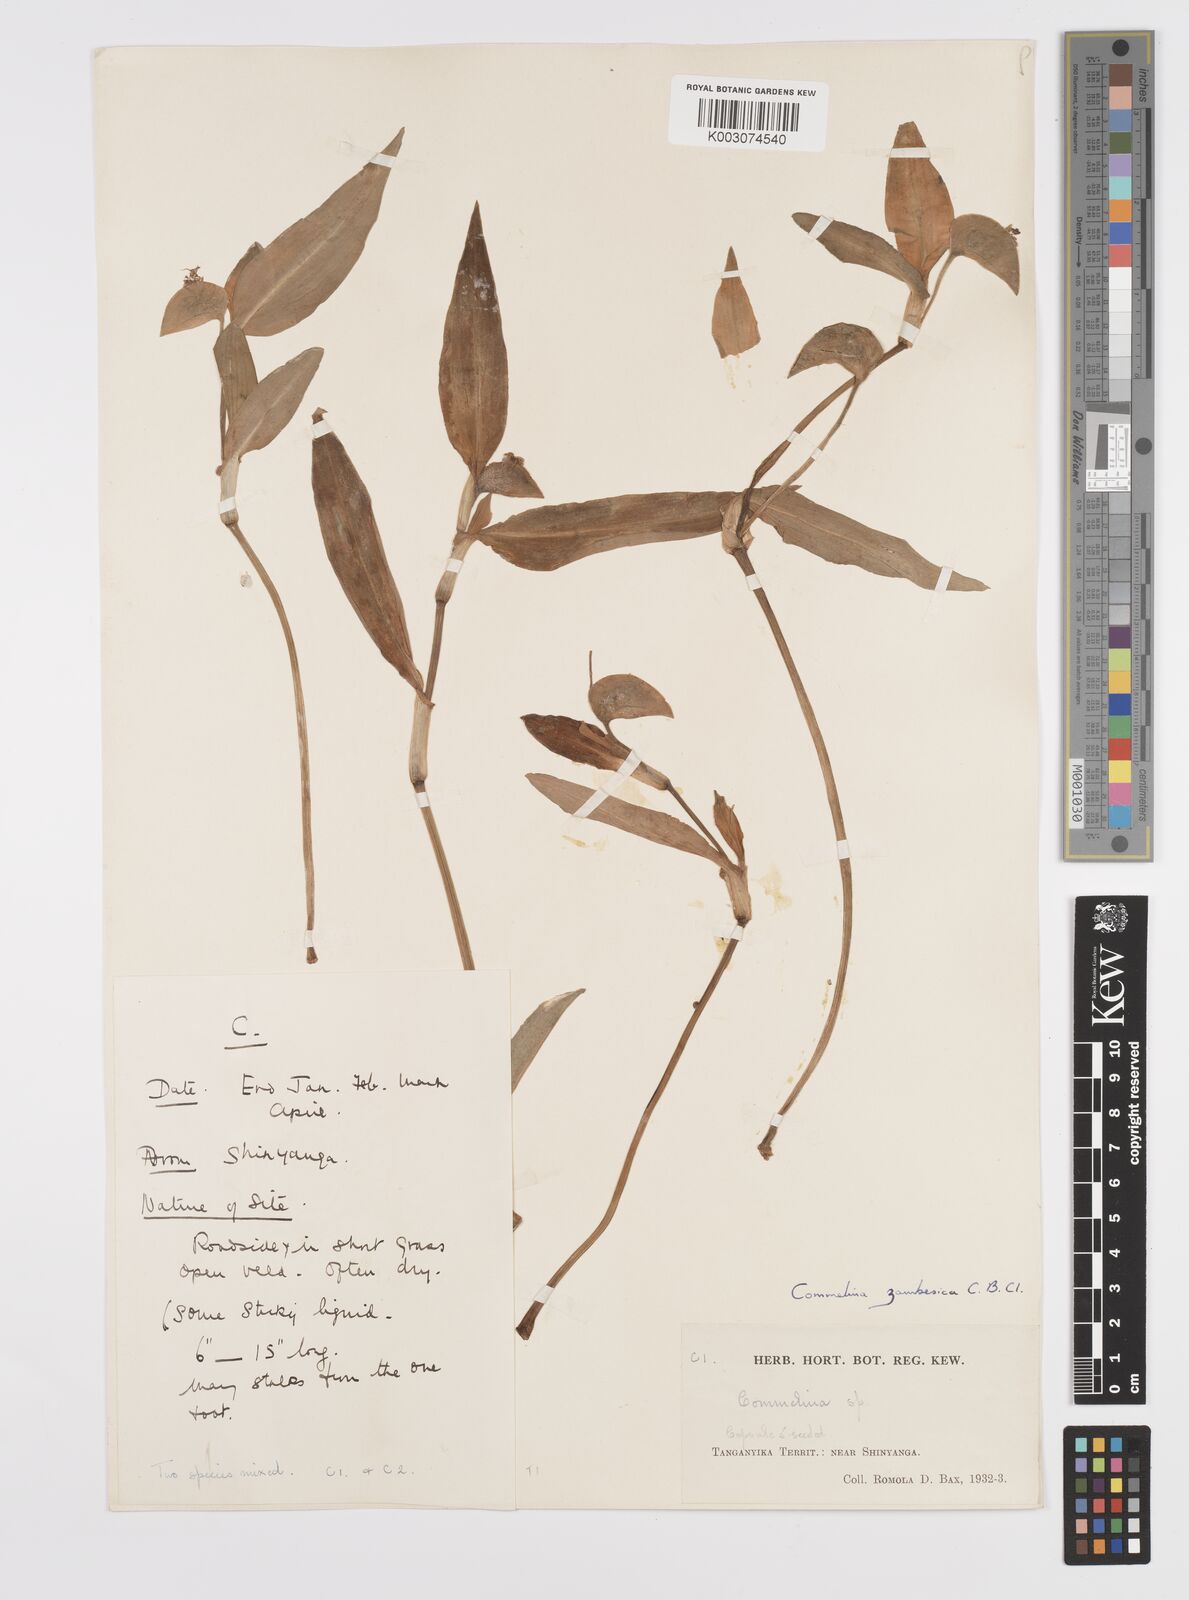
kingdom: Plantae
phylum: Tracheophyta
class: Liliopsida
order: Commelinales
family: Commelinaceae
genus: Commelina
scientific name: Commelina zambesica
